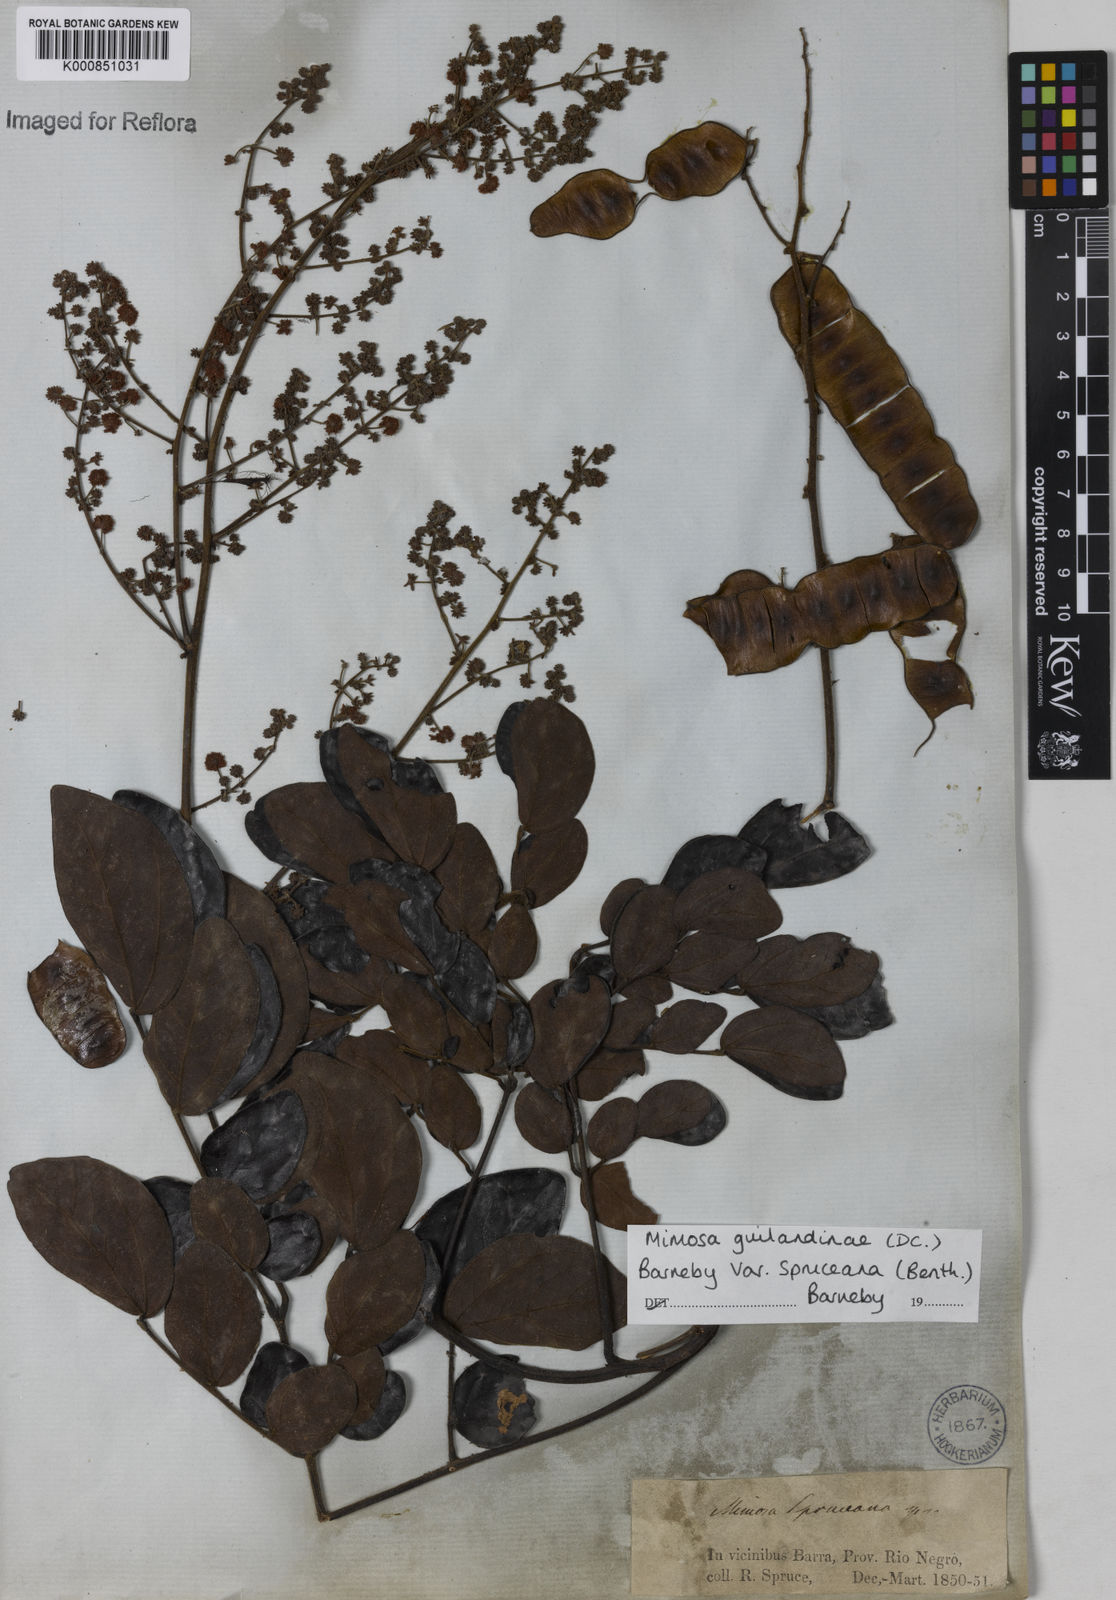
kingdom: Plantae
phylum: Tracheophyta
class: Magnoliopsida
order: Fabales
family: Fabaceae
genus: Mimosa
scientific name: Mimosa guilandinae
